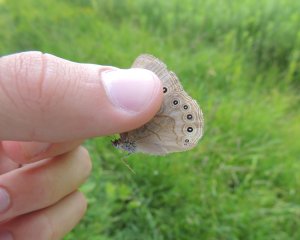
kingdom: Animalia
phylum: Arthropoda
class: Insecta
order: Lepidoptera
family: Nymphalidae
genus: Lethe
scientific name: Lethe eurydice
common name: Appalachian Eyed Brown
